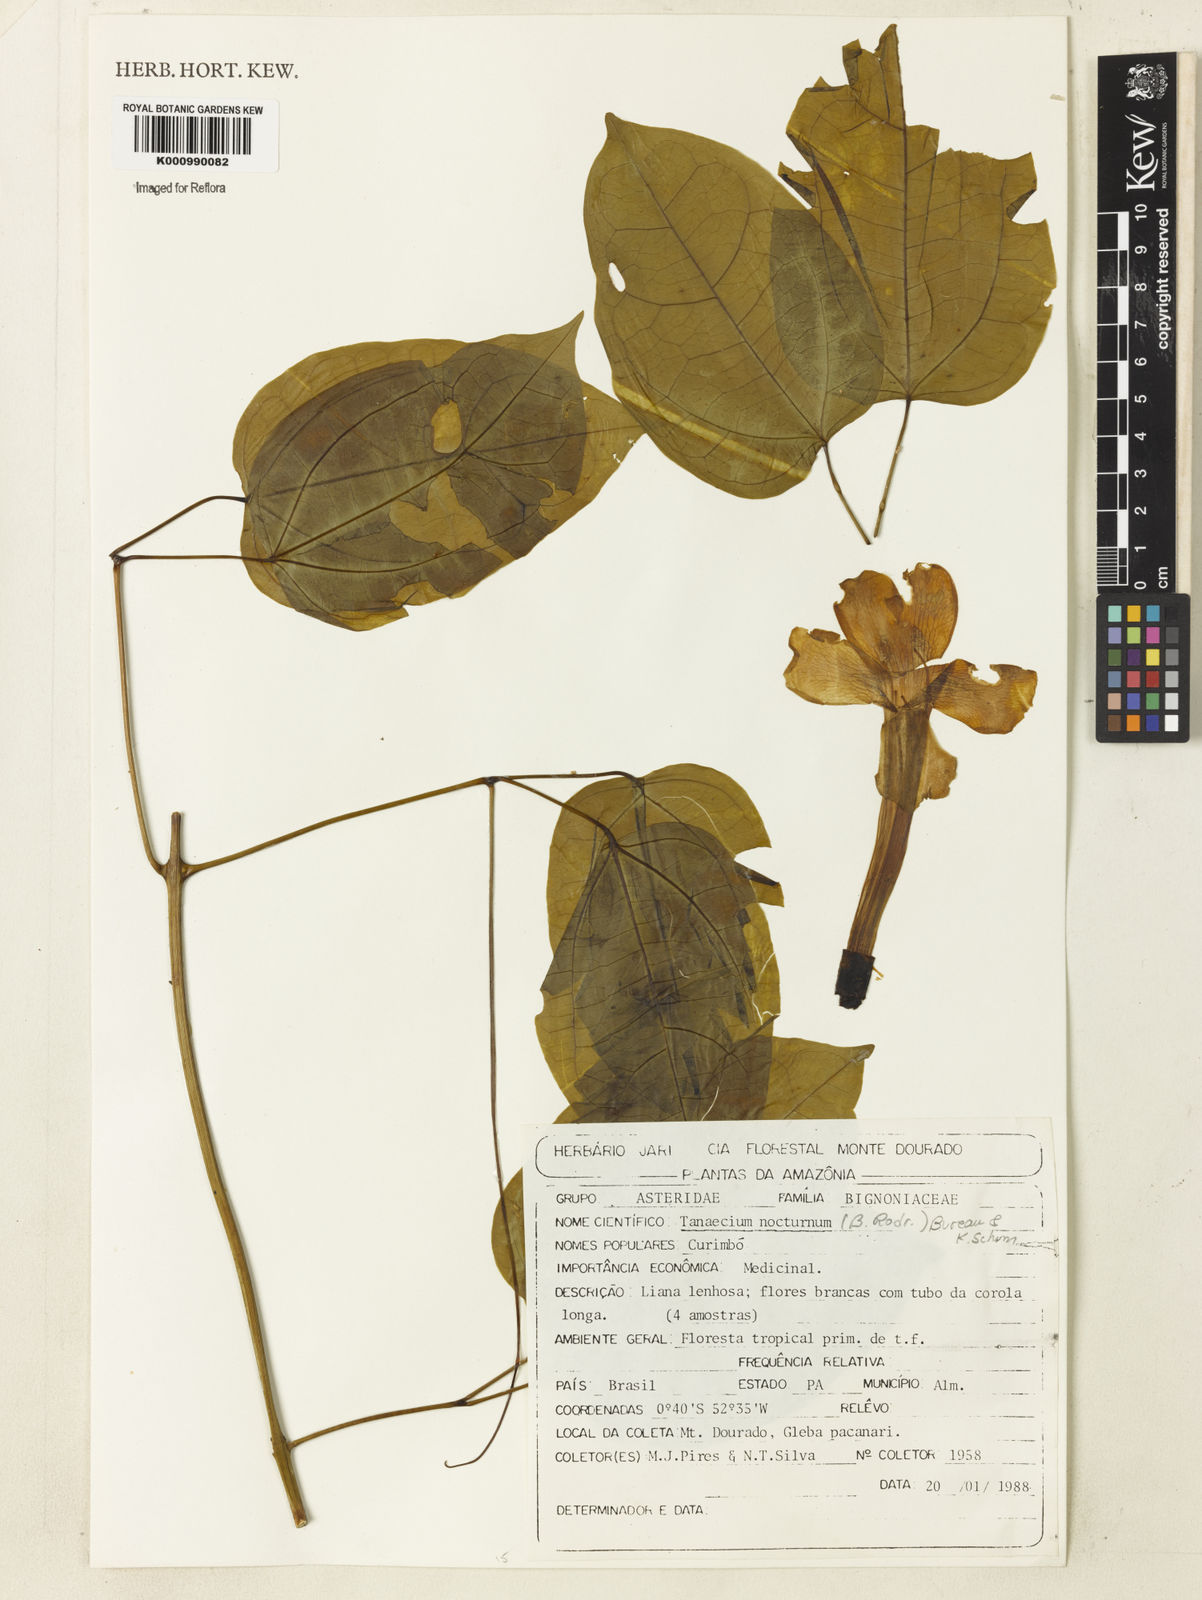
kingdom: Plantae
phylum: Tracheophyta
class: Magnoliopsida
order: Lamiales
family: Bignoniaceae
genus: Bignonia
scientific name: Bignonia nocturna
